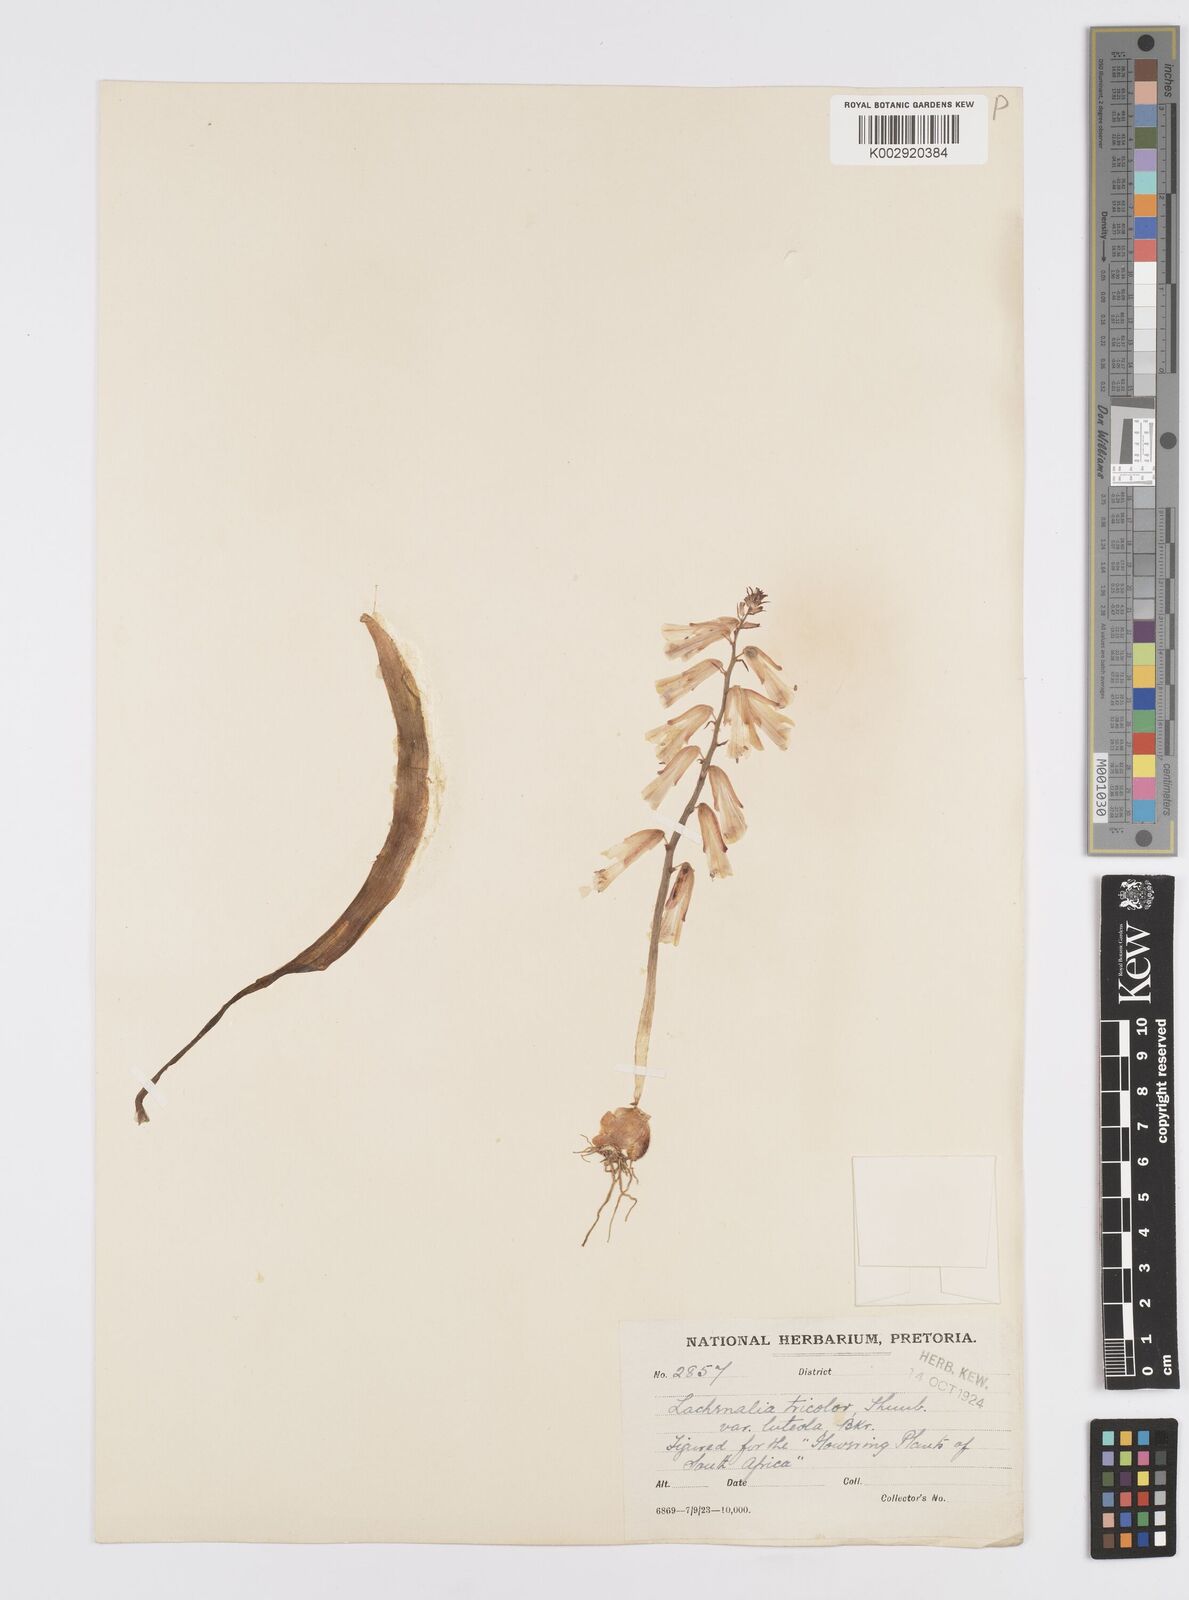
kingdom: Plantae
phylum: Tracheophyta
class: Liliopsida
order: Asparagales
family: Asparagaceae
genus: Lachenalia
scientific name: Lachenalia
